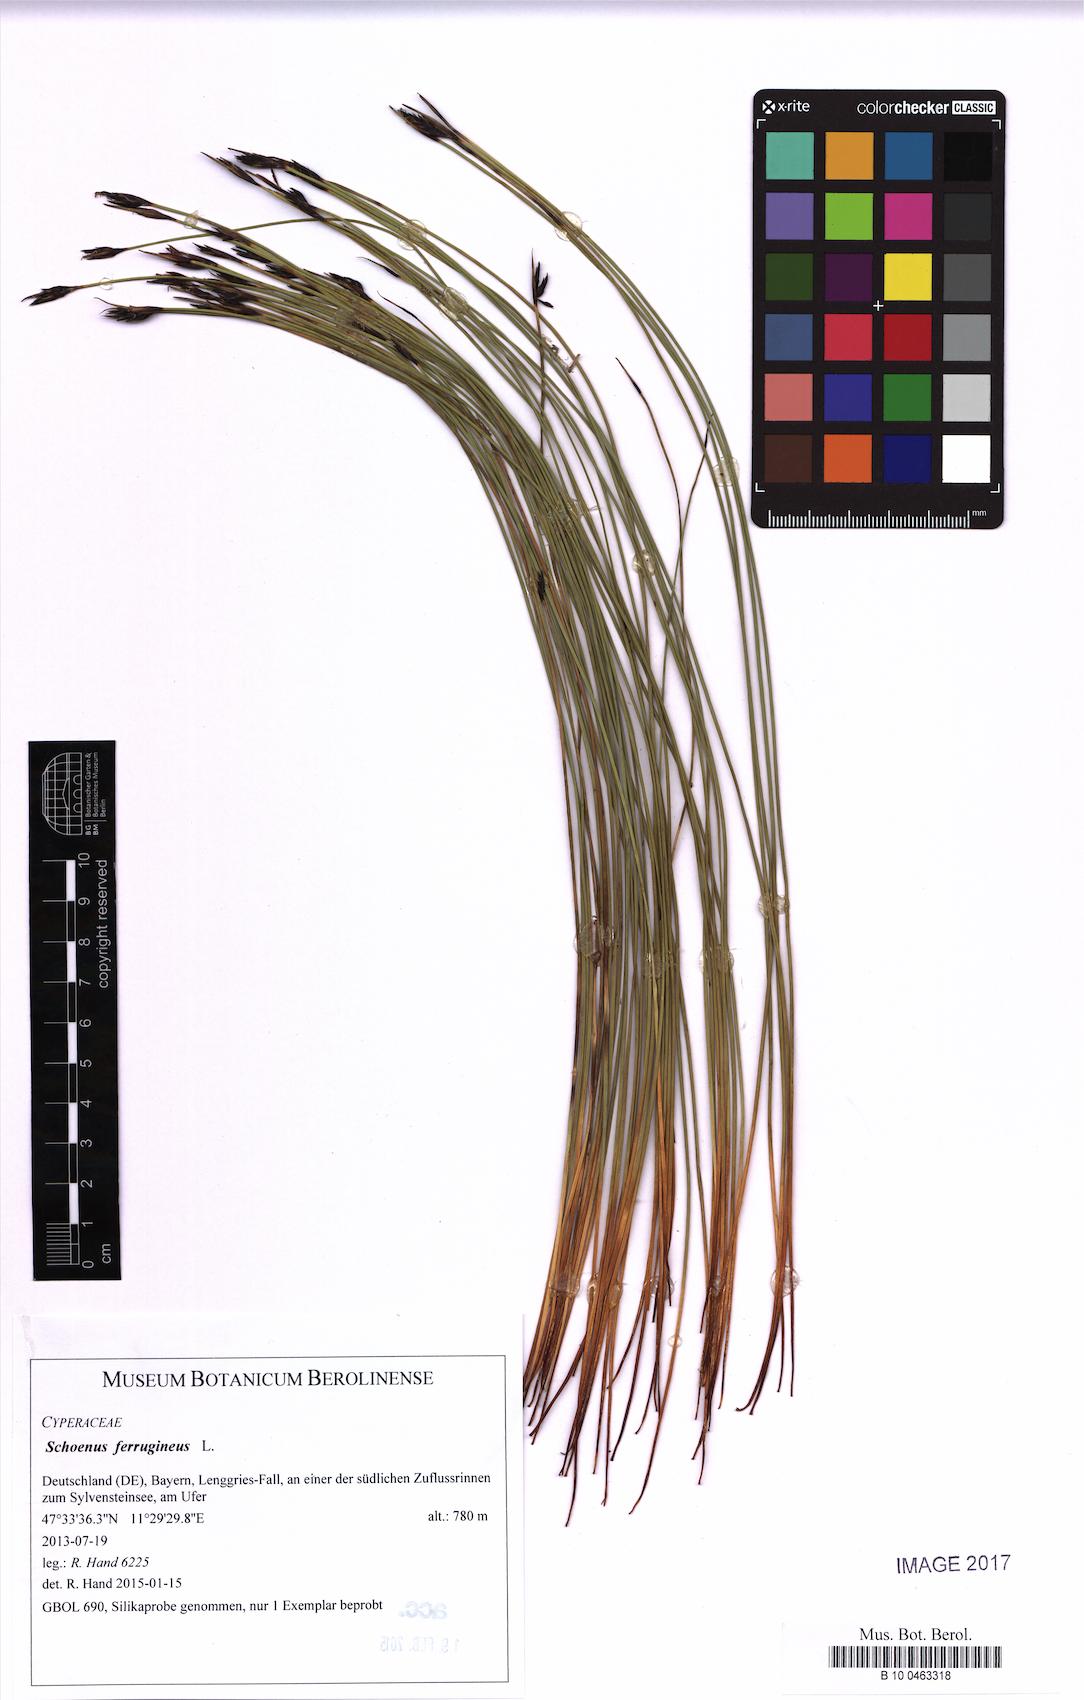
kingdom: Plantae
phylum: Tracheophyta
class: Liliopsida
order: Poales
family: Cyperaceae
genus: Schoenus
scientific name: Schoenus ferrugineus
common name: Brown bog-rush
